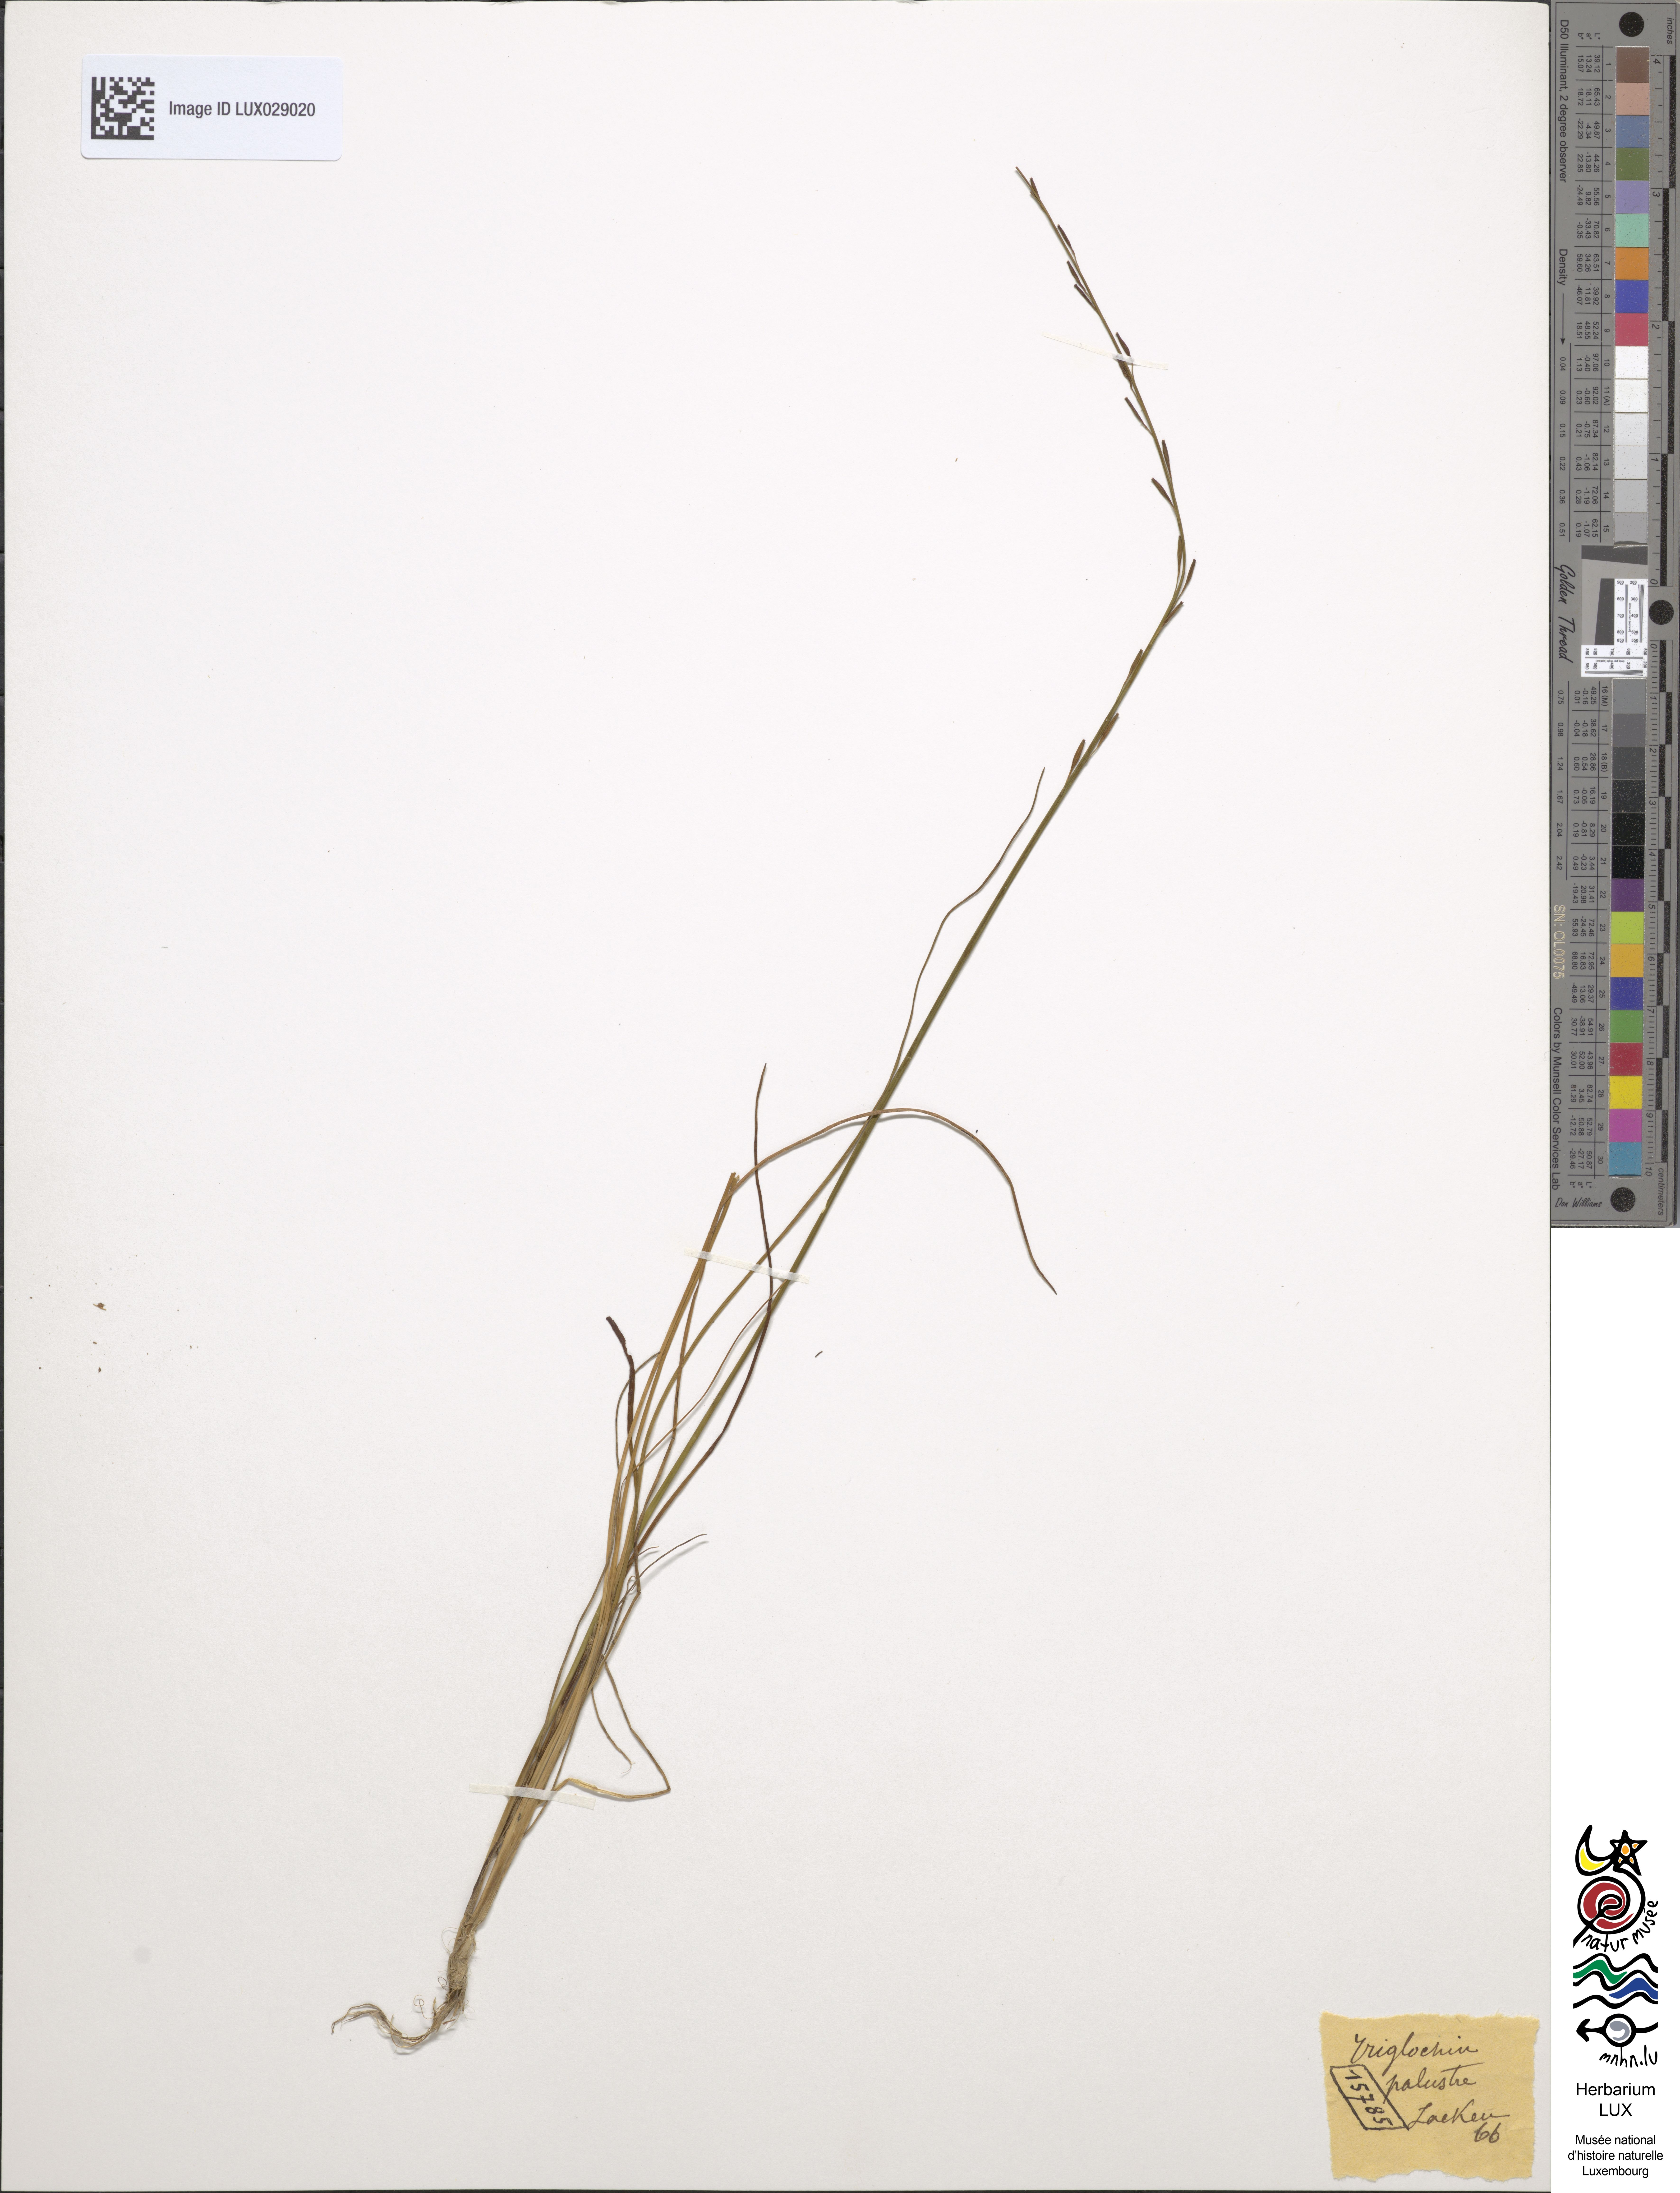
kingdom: Plantae
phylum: Tracheophyta
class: Liliopsida
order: Alismatales
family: Juncaginaceae
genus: Triglochin
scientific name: Triglochin palustris
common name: Marsh arrowgrass
